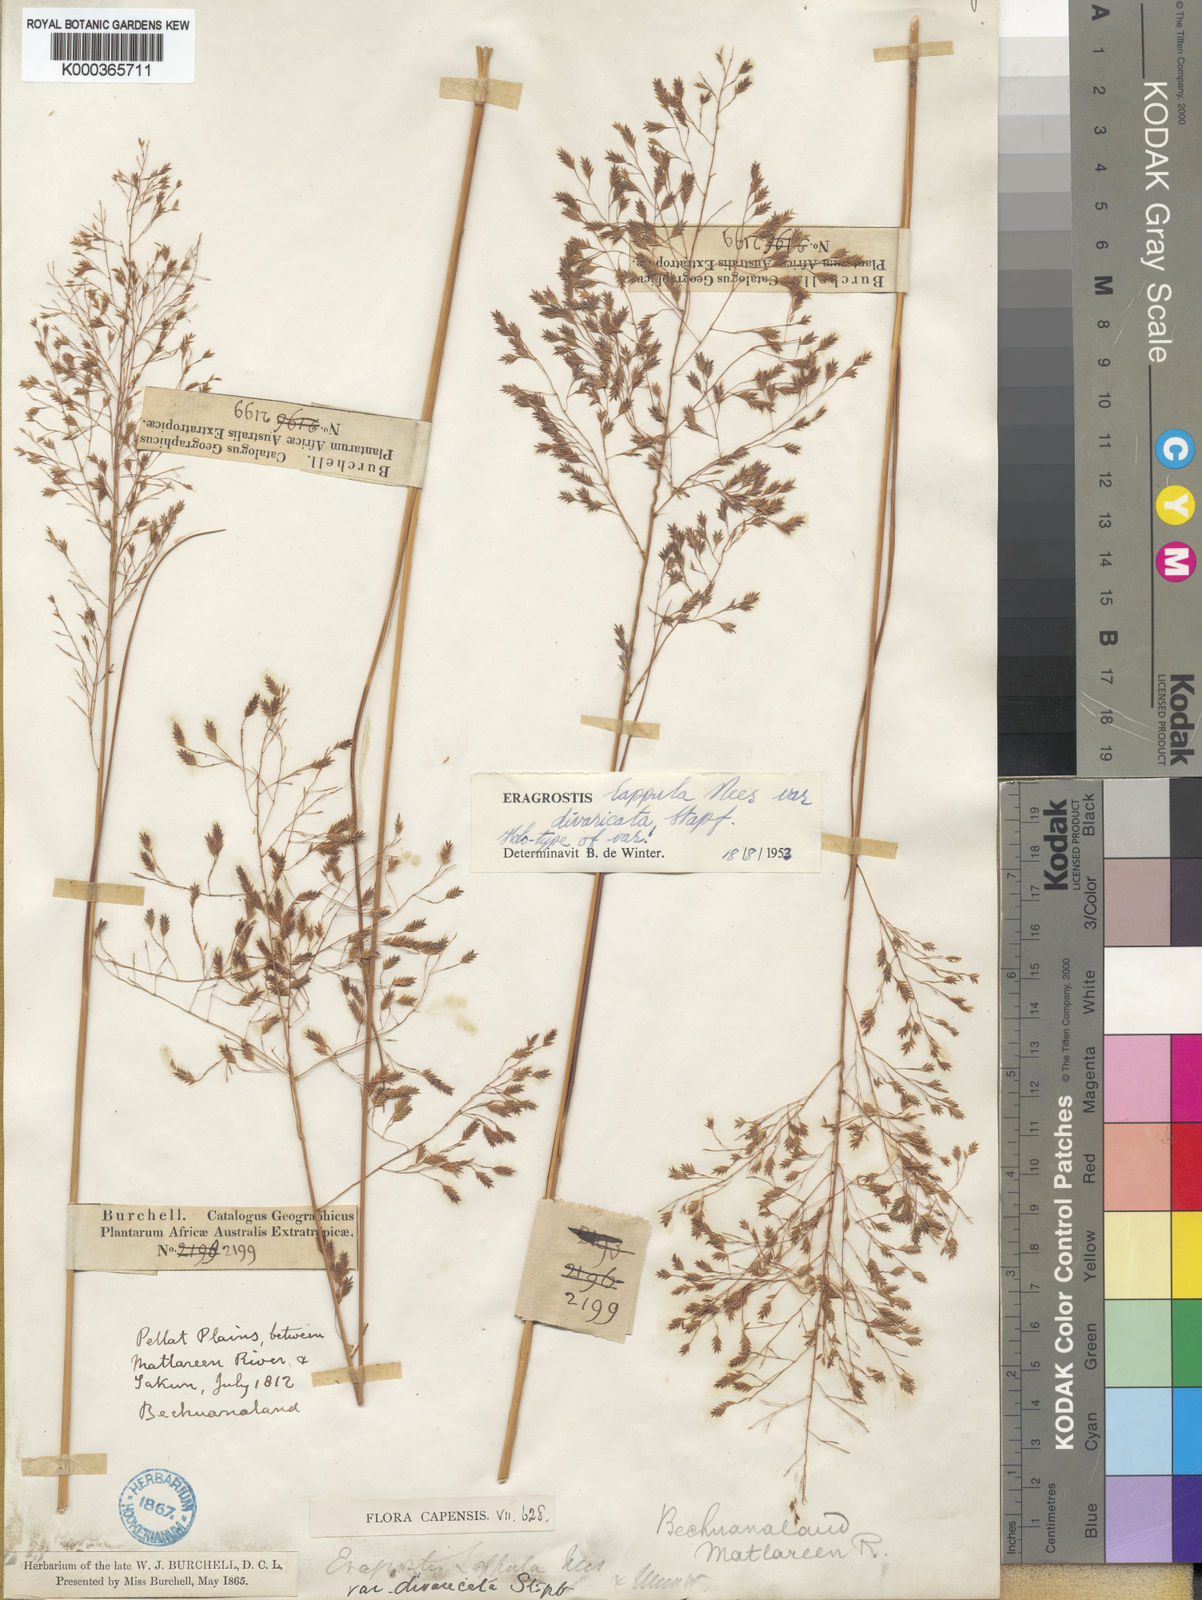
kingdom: Plantae
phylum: Tracheophyta
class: Liliopsida
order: Poales
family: Poaceae
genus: Eragrostis
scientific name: Eragrostis lappula
